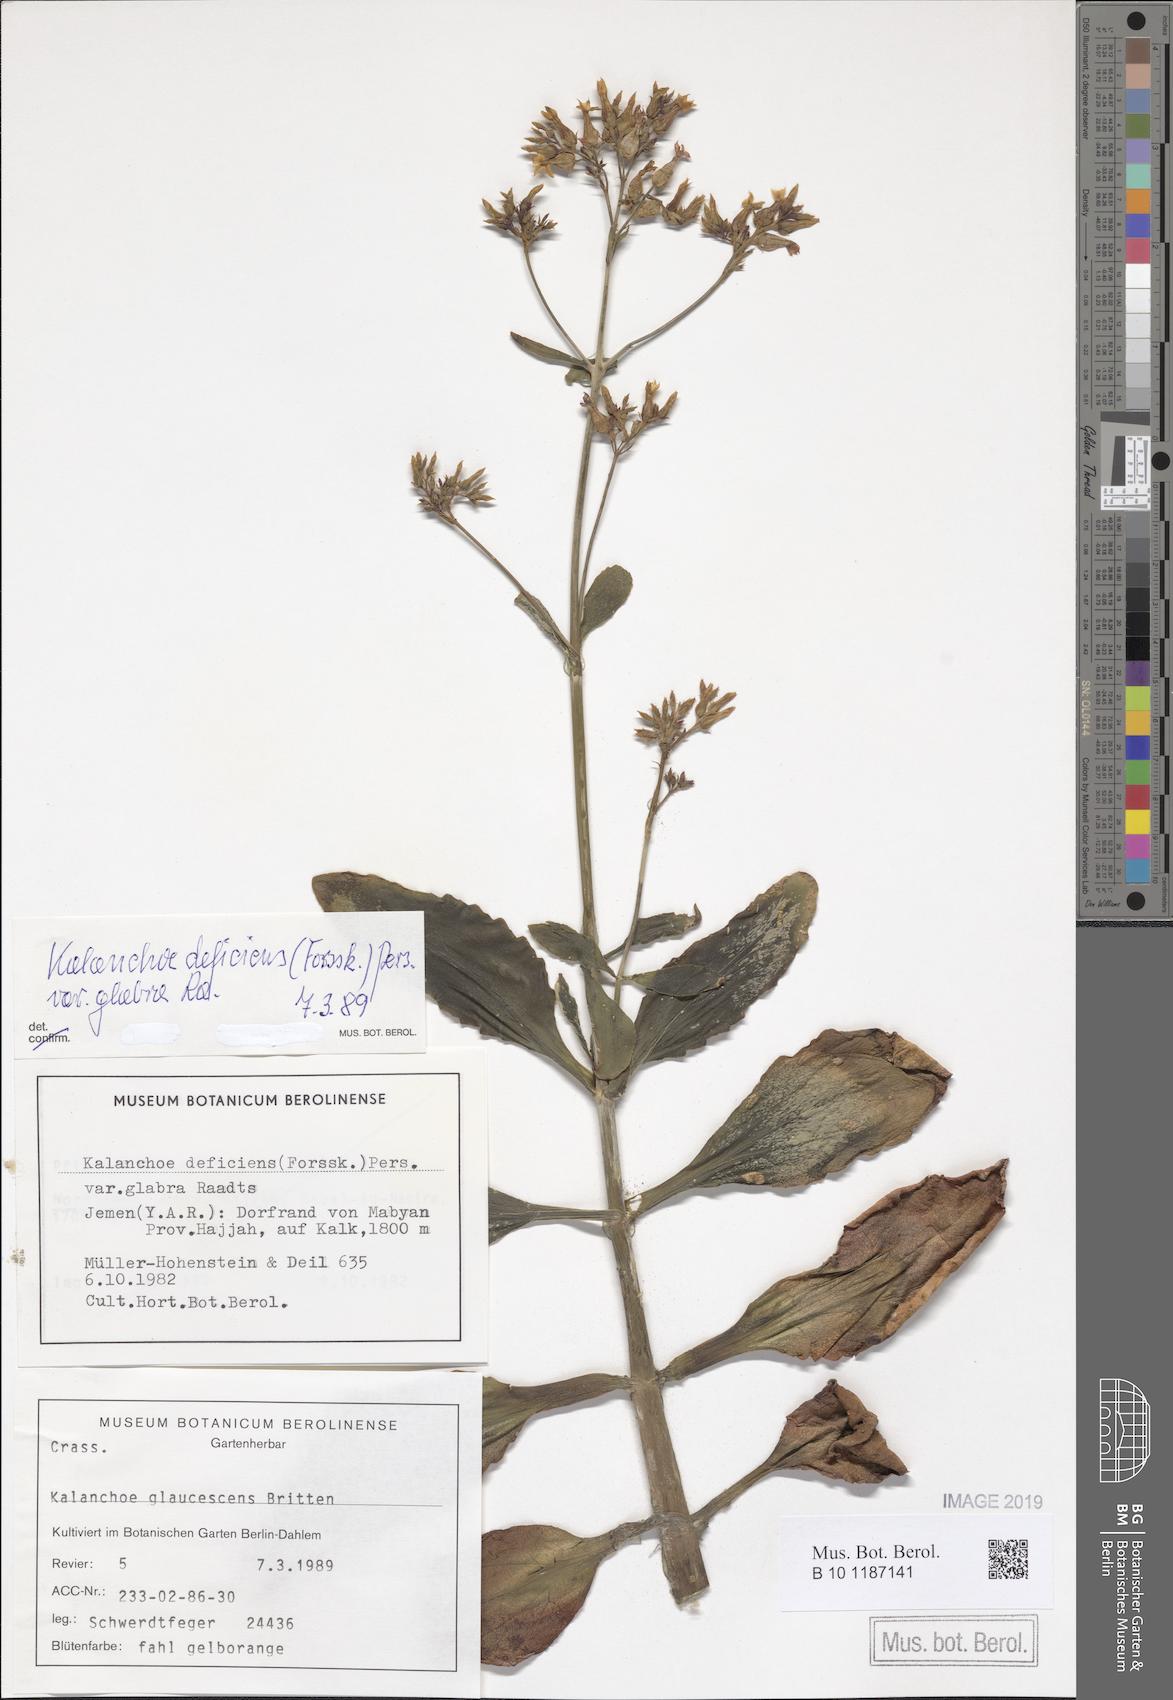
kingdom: Plantae
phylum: Tracheophyta
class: Magnoliopsida
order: Saxifragales
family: Crassulaceae
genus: Kalanchoe
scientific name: Kalanchoe deficiens
